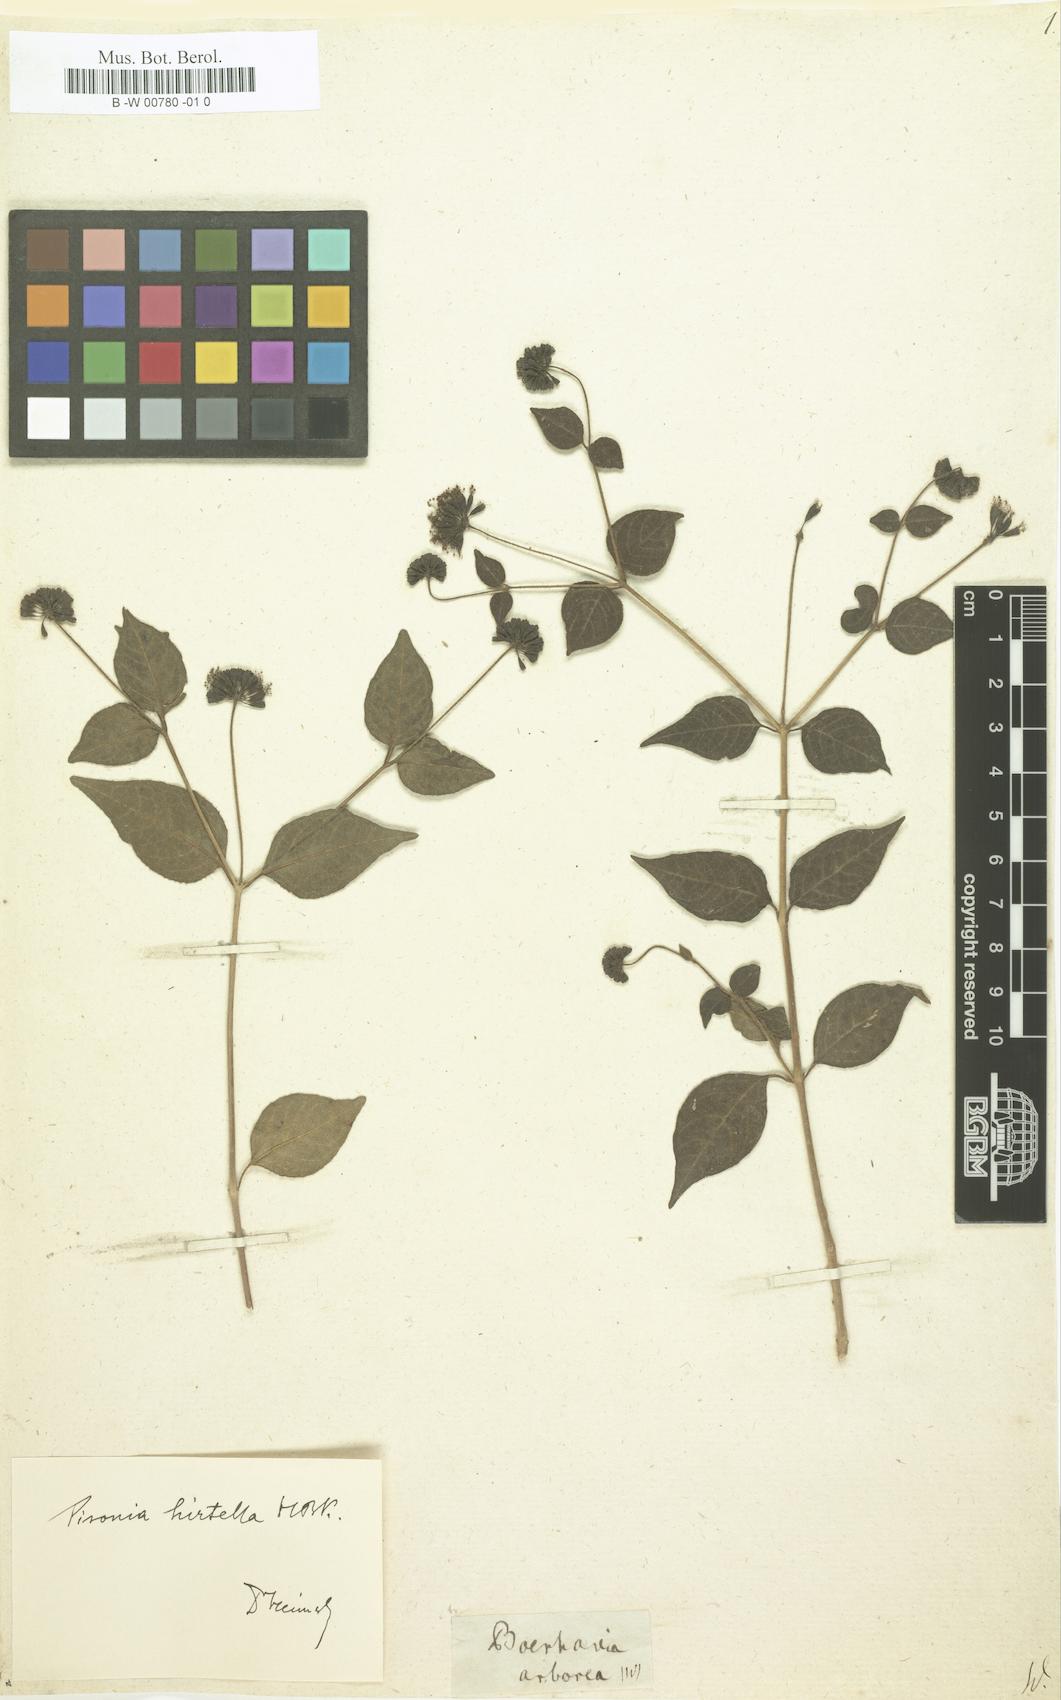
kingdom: Plantae
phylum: Tracheophyta
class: Magnoliopsida
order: Caryophyllales
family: Nyctaginaceae
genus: Pisoniella
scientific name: Pisoniella arborescens
